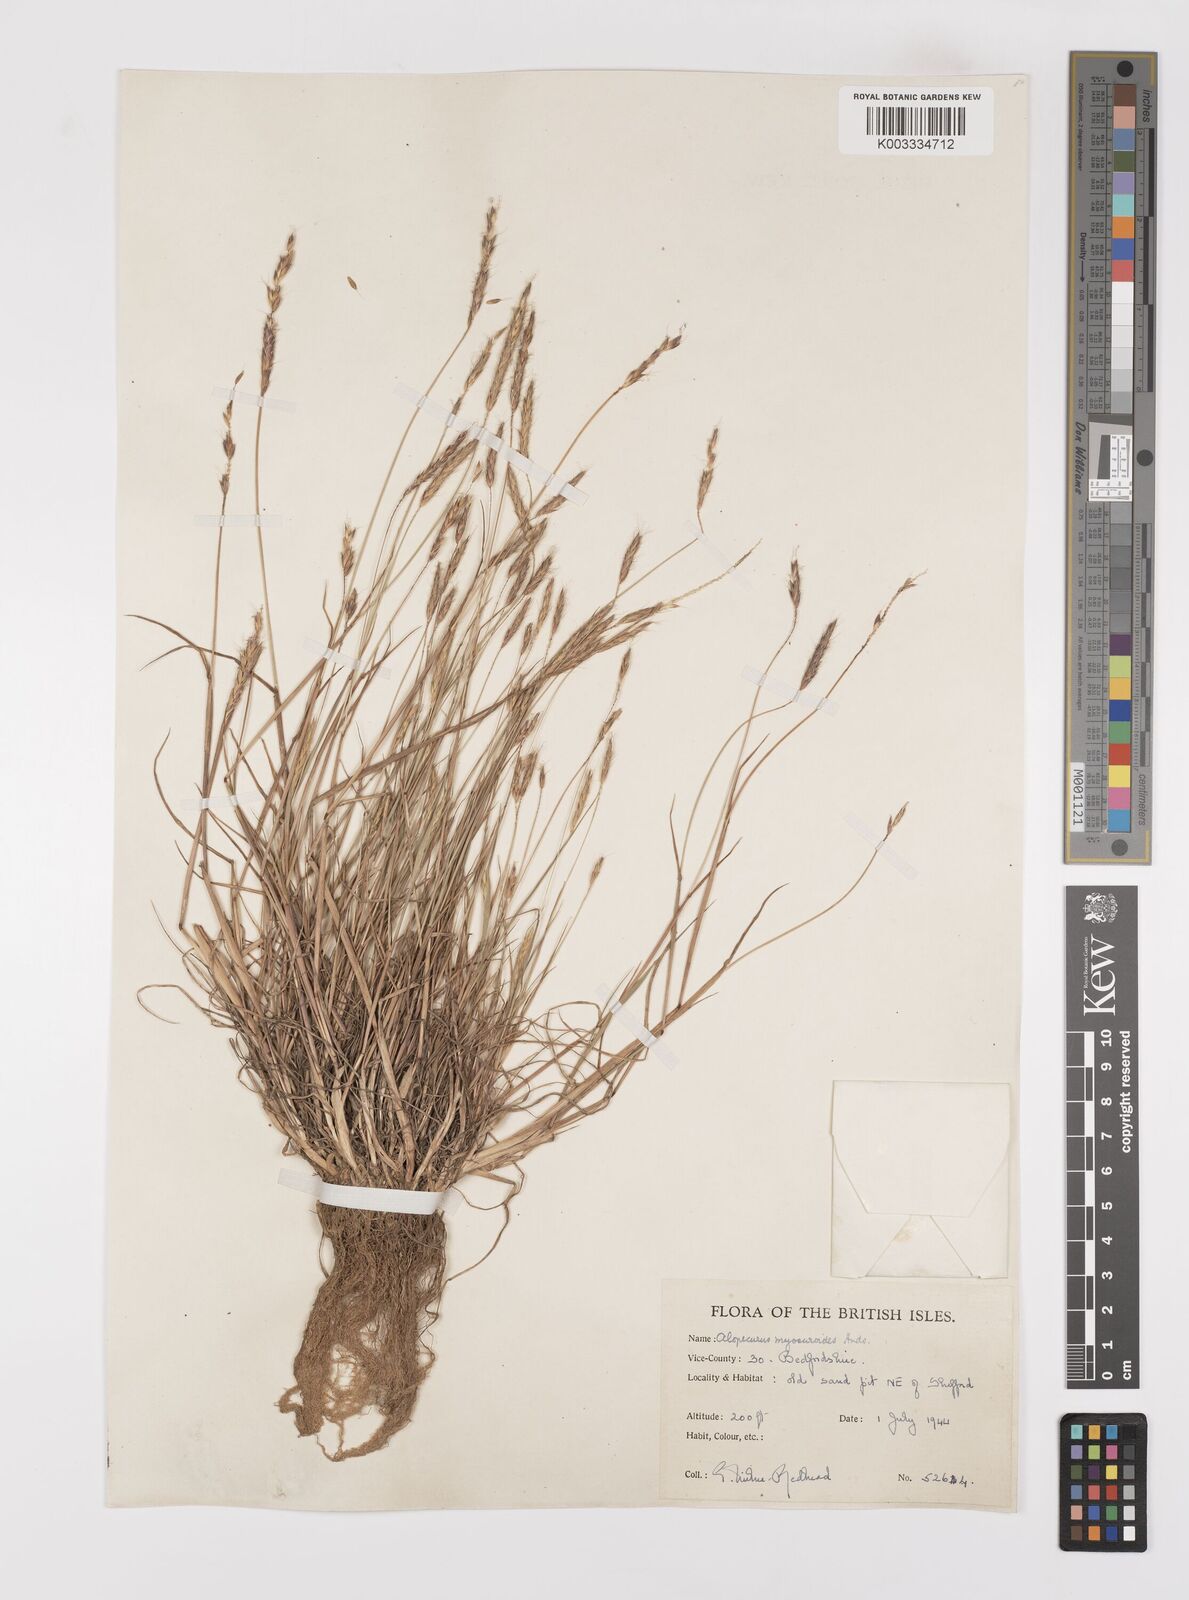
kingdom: Plantae
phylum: Tracheophyta
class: Liliopsida
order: Poales
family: Poaceae
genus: Alopecurus
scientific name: Alopecurus myosuroides
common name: Black-grass
